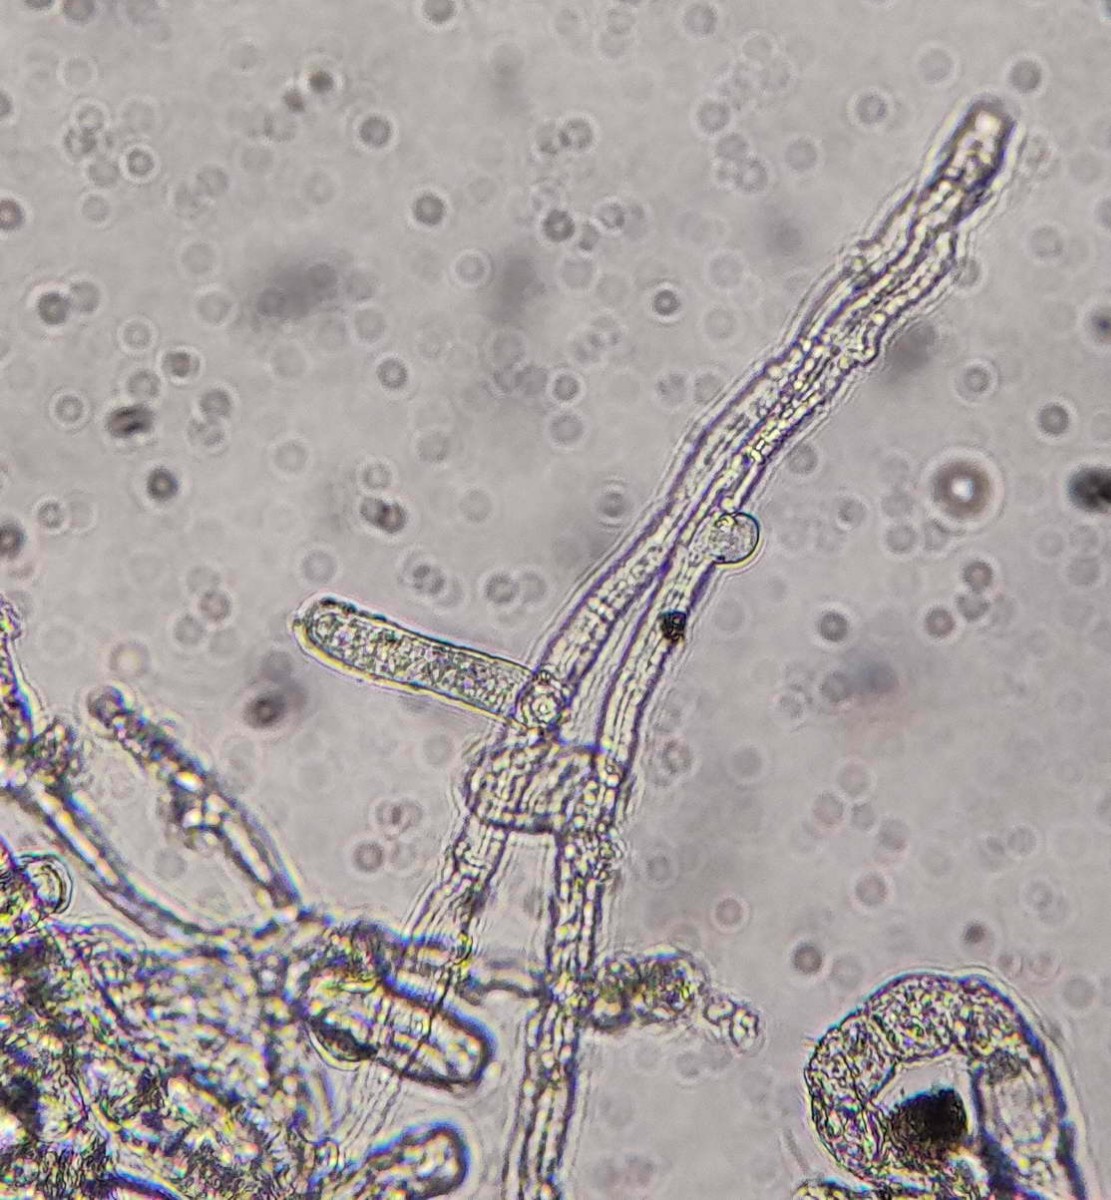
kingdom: Fungi
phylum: Ascomycota
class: Leotiomycetes
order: Helotiales
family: Erysiphaceae
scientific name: Erysiphaceae
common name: meldugfamilien
